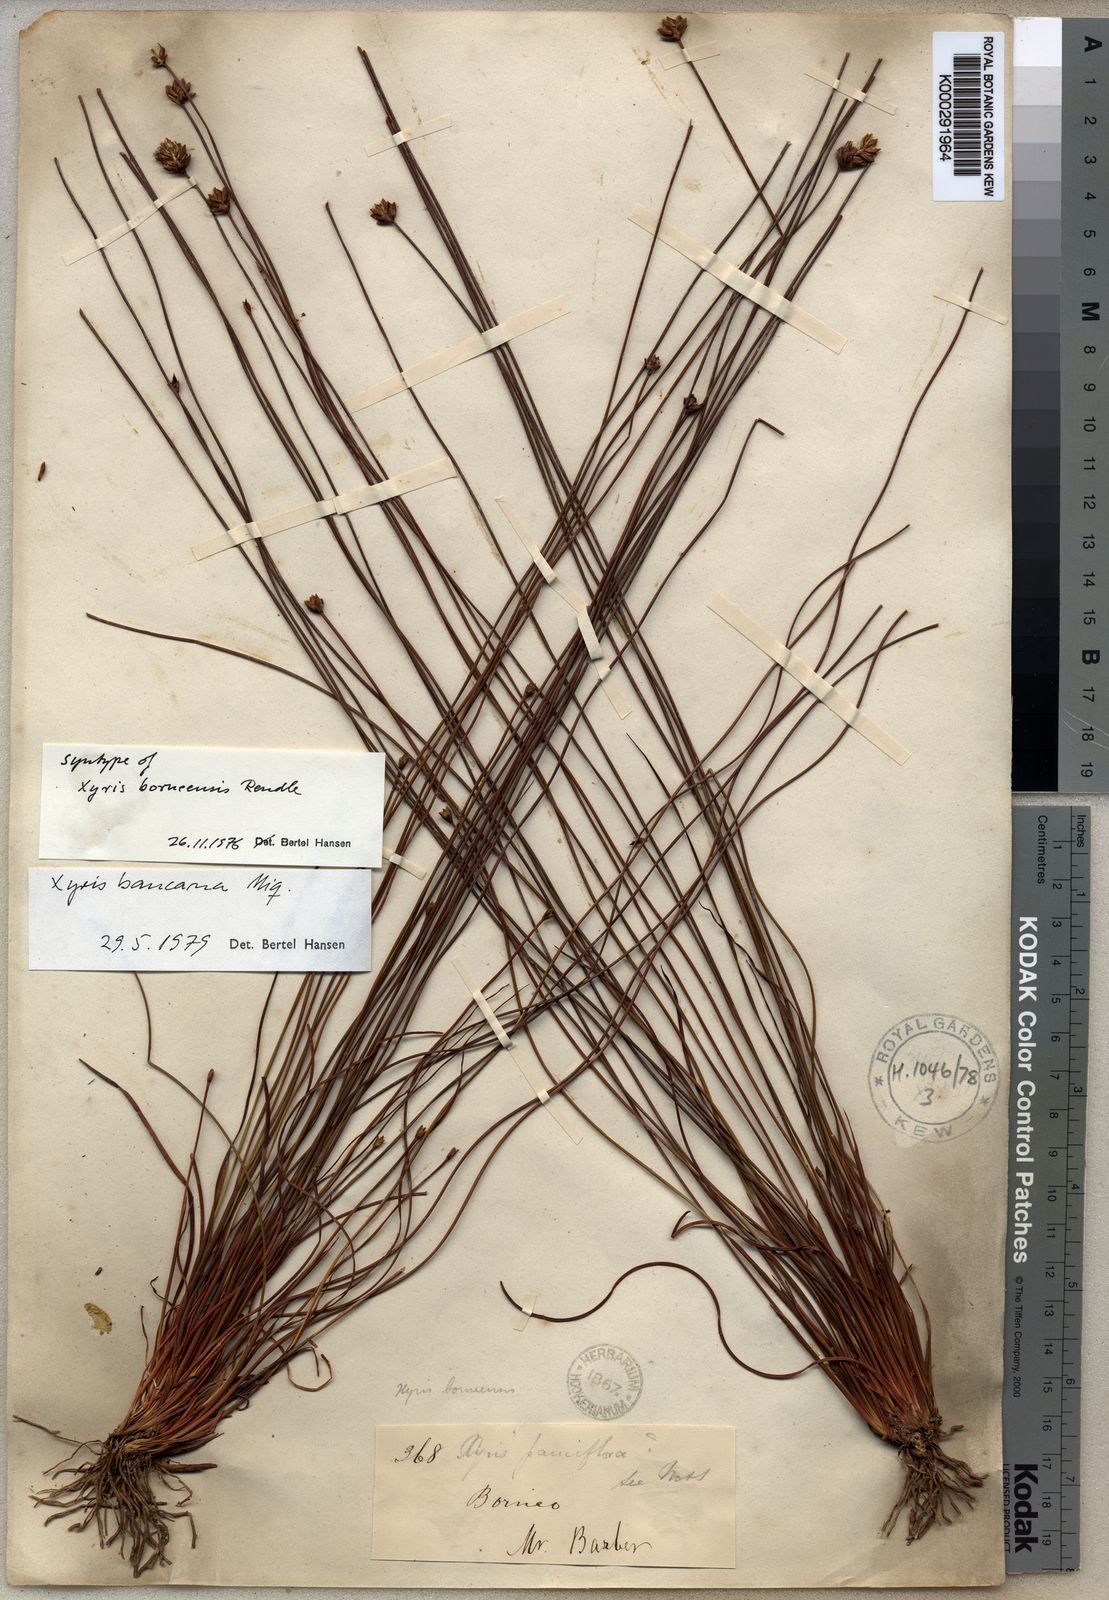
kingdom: Plantae
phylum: Tracheophyta
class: Liliopsida
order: Poales
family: Xyridaceae
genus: Xyris
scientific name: Xyris bancana
